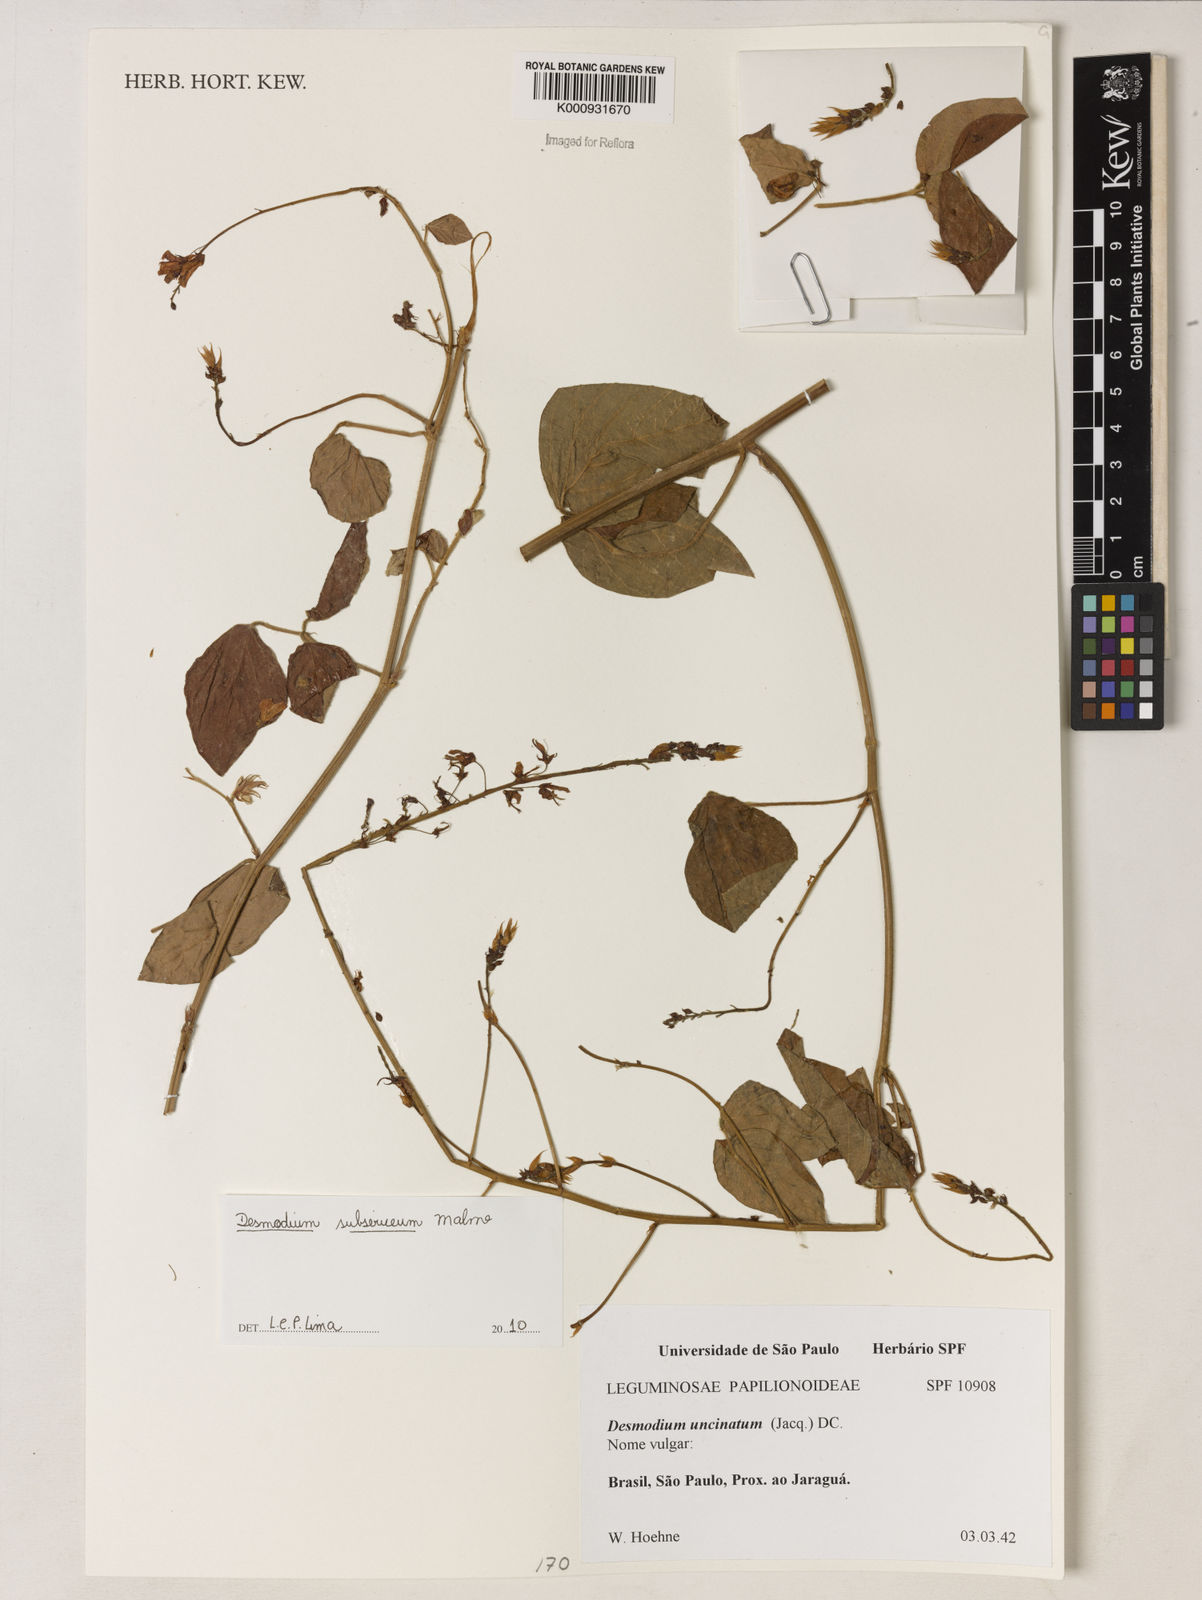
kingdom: Plantae
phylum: Tracheophyta
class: Magnoliopsida
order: Fabales
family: Fabaceae
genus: Desmodium
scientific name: Desmodium subsericeum
